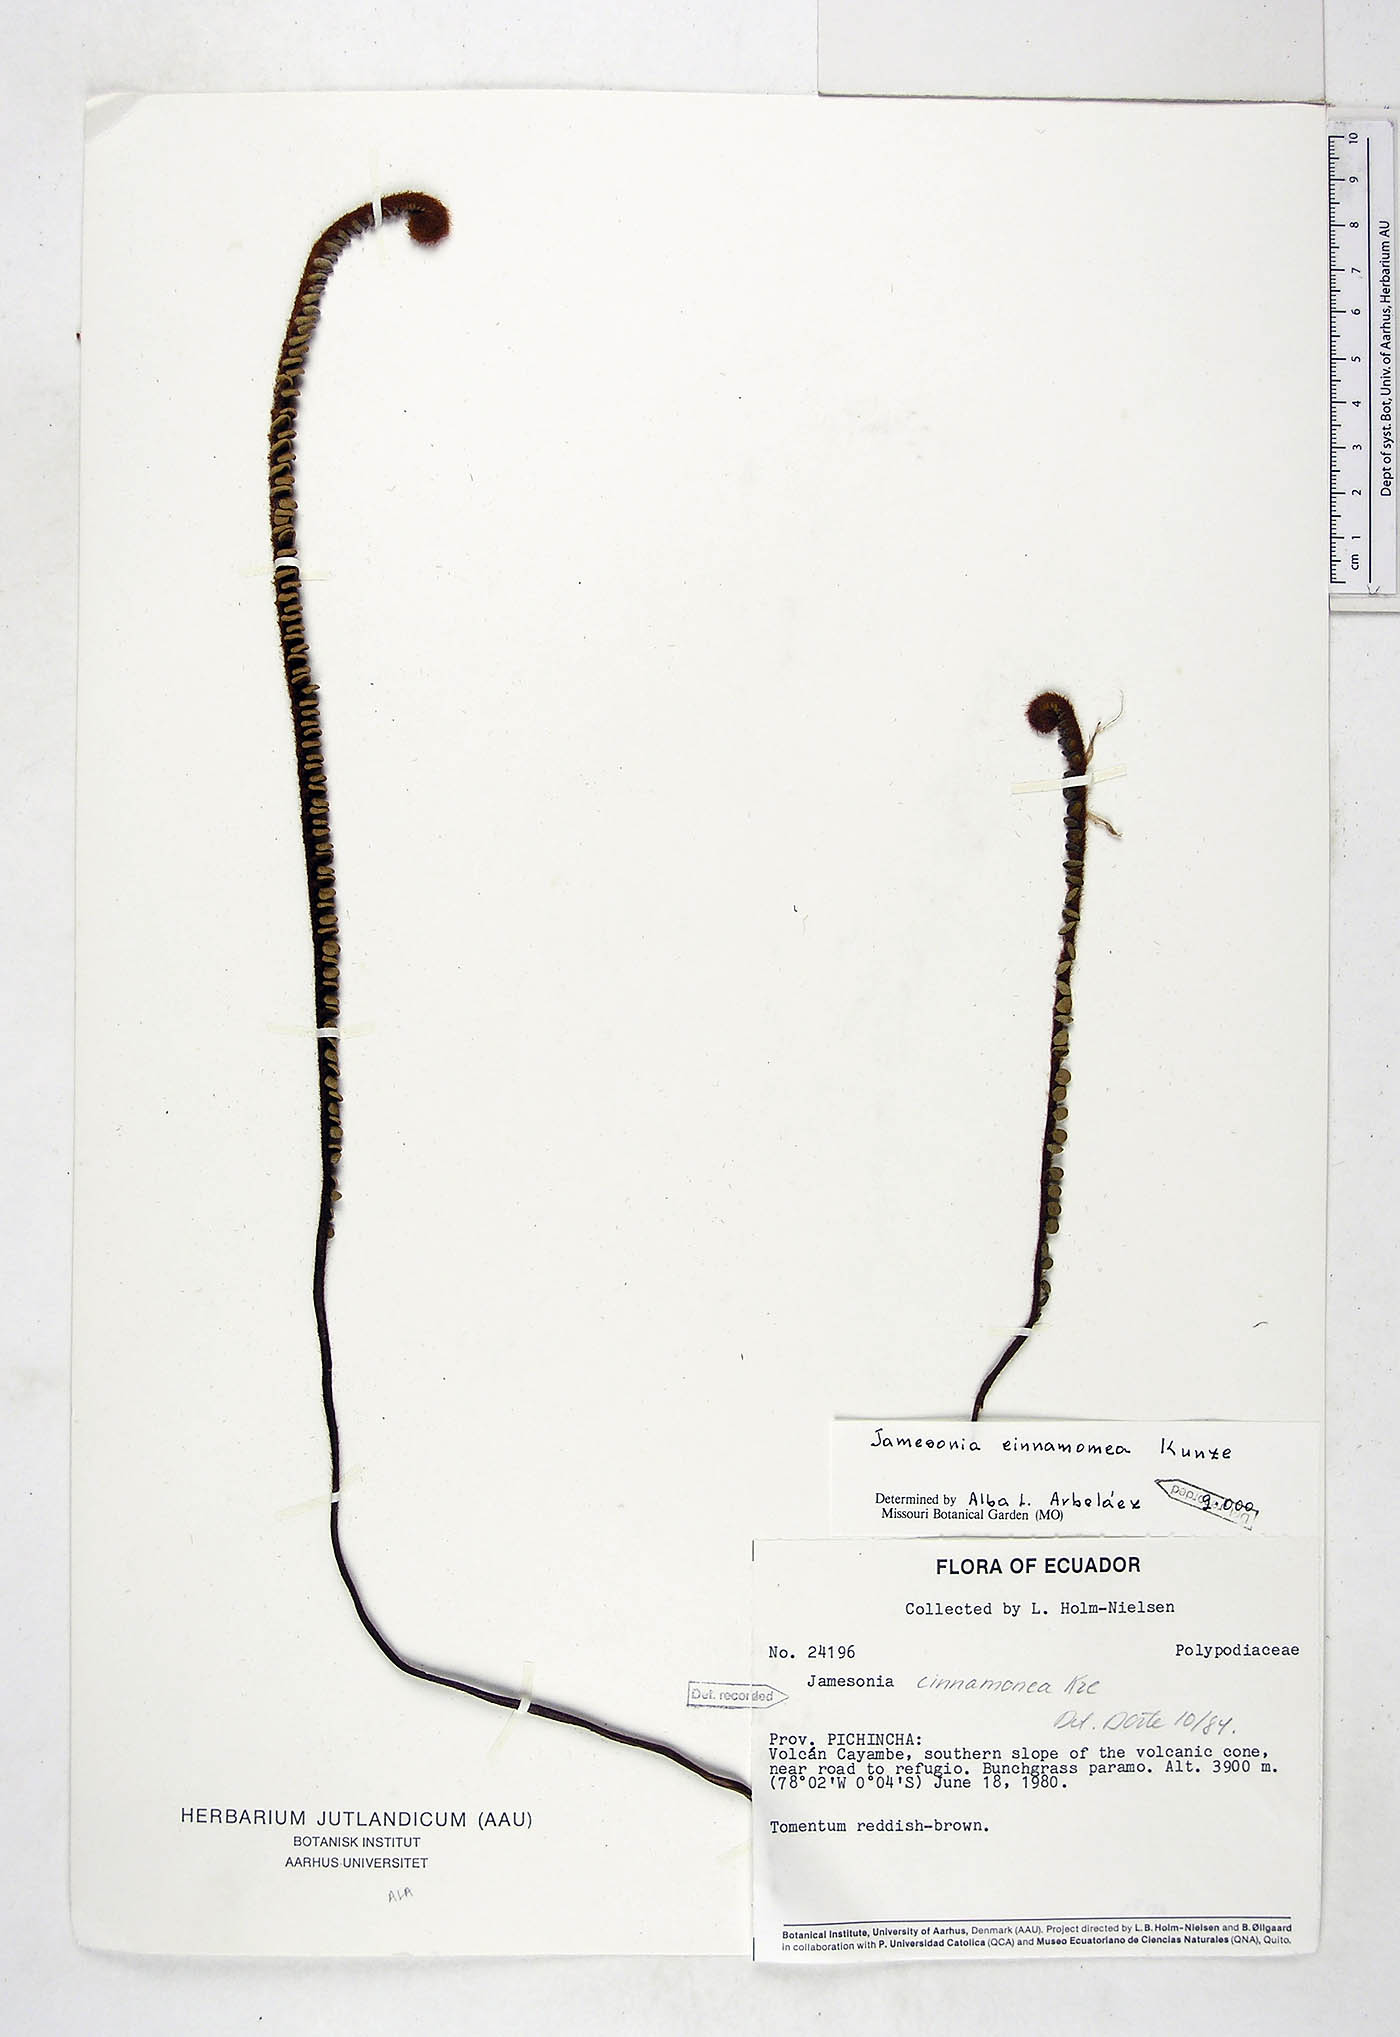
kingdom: Plantae
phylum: Tracheophyta
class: Polypodiopsida
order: Polypodiales
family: Pteridaceae
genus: Jamesonia
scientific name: Jamesonia cinnamomea
